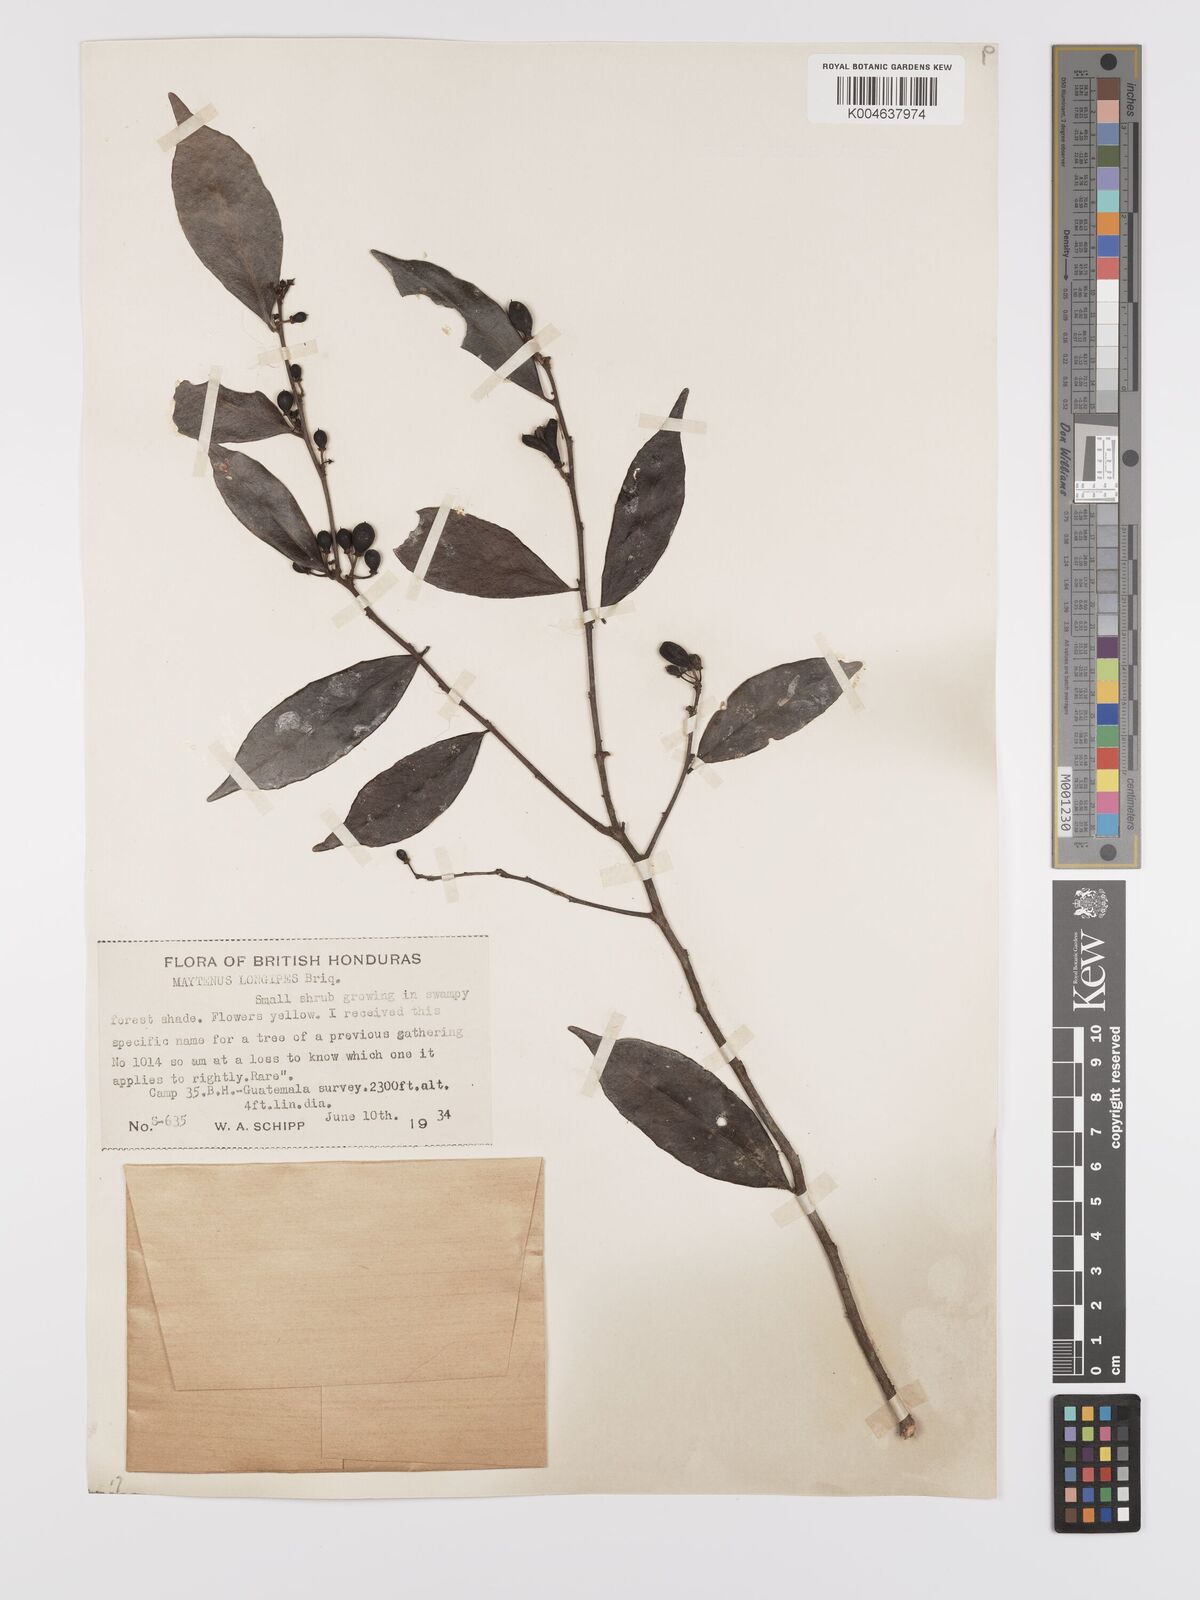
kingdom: Plantae
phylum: Tracheophyta
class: Magnoliopsida
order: Celastrales
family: Celastraceae
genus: Maytenus
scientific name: Maytenus longipes
